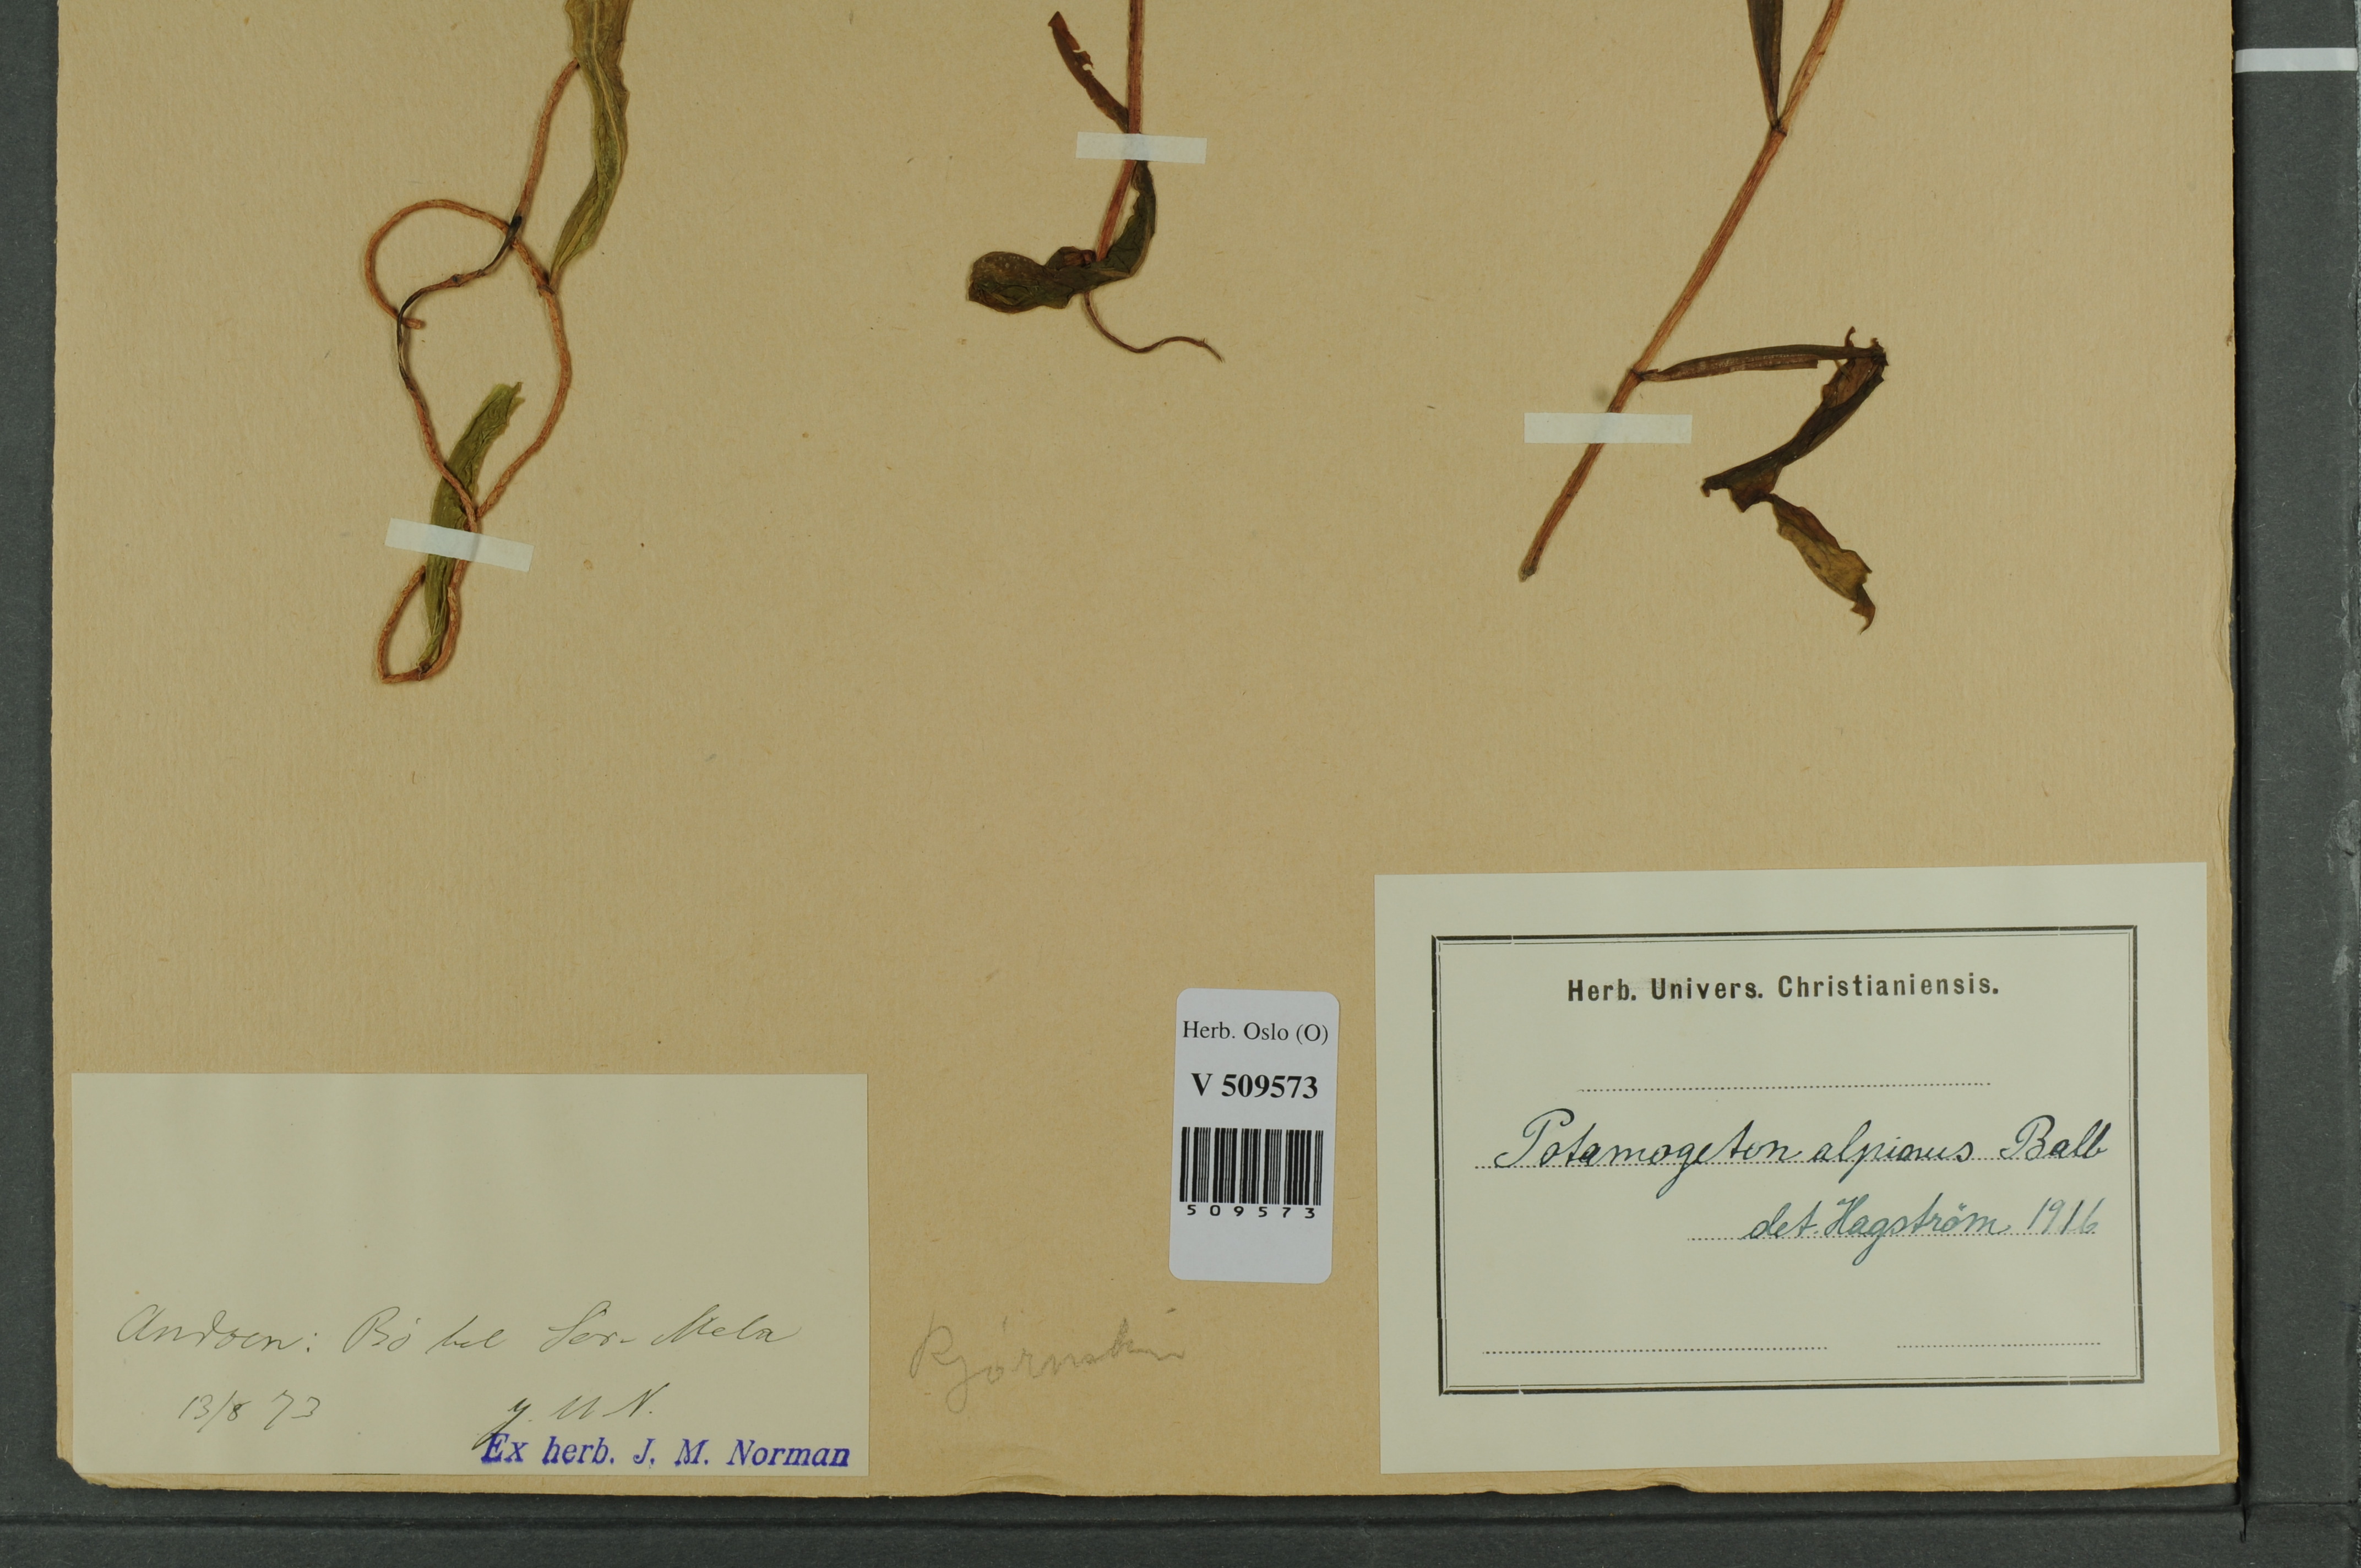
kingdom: Plantae
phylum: Tracheophyta
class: Liliopsida
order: Alismatales
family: Potamogetonaceae
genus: Potamogeton
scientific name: Potamogeton alpinus
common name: Red pondweed
